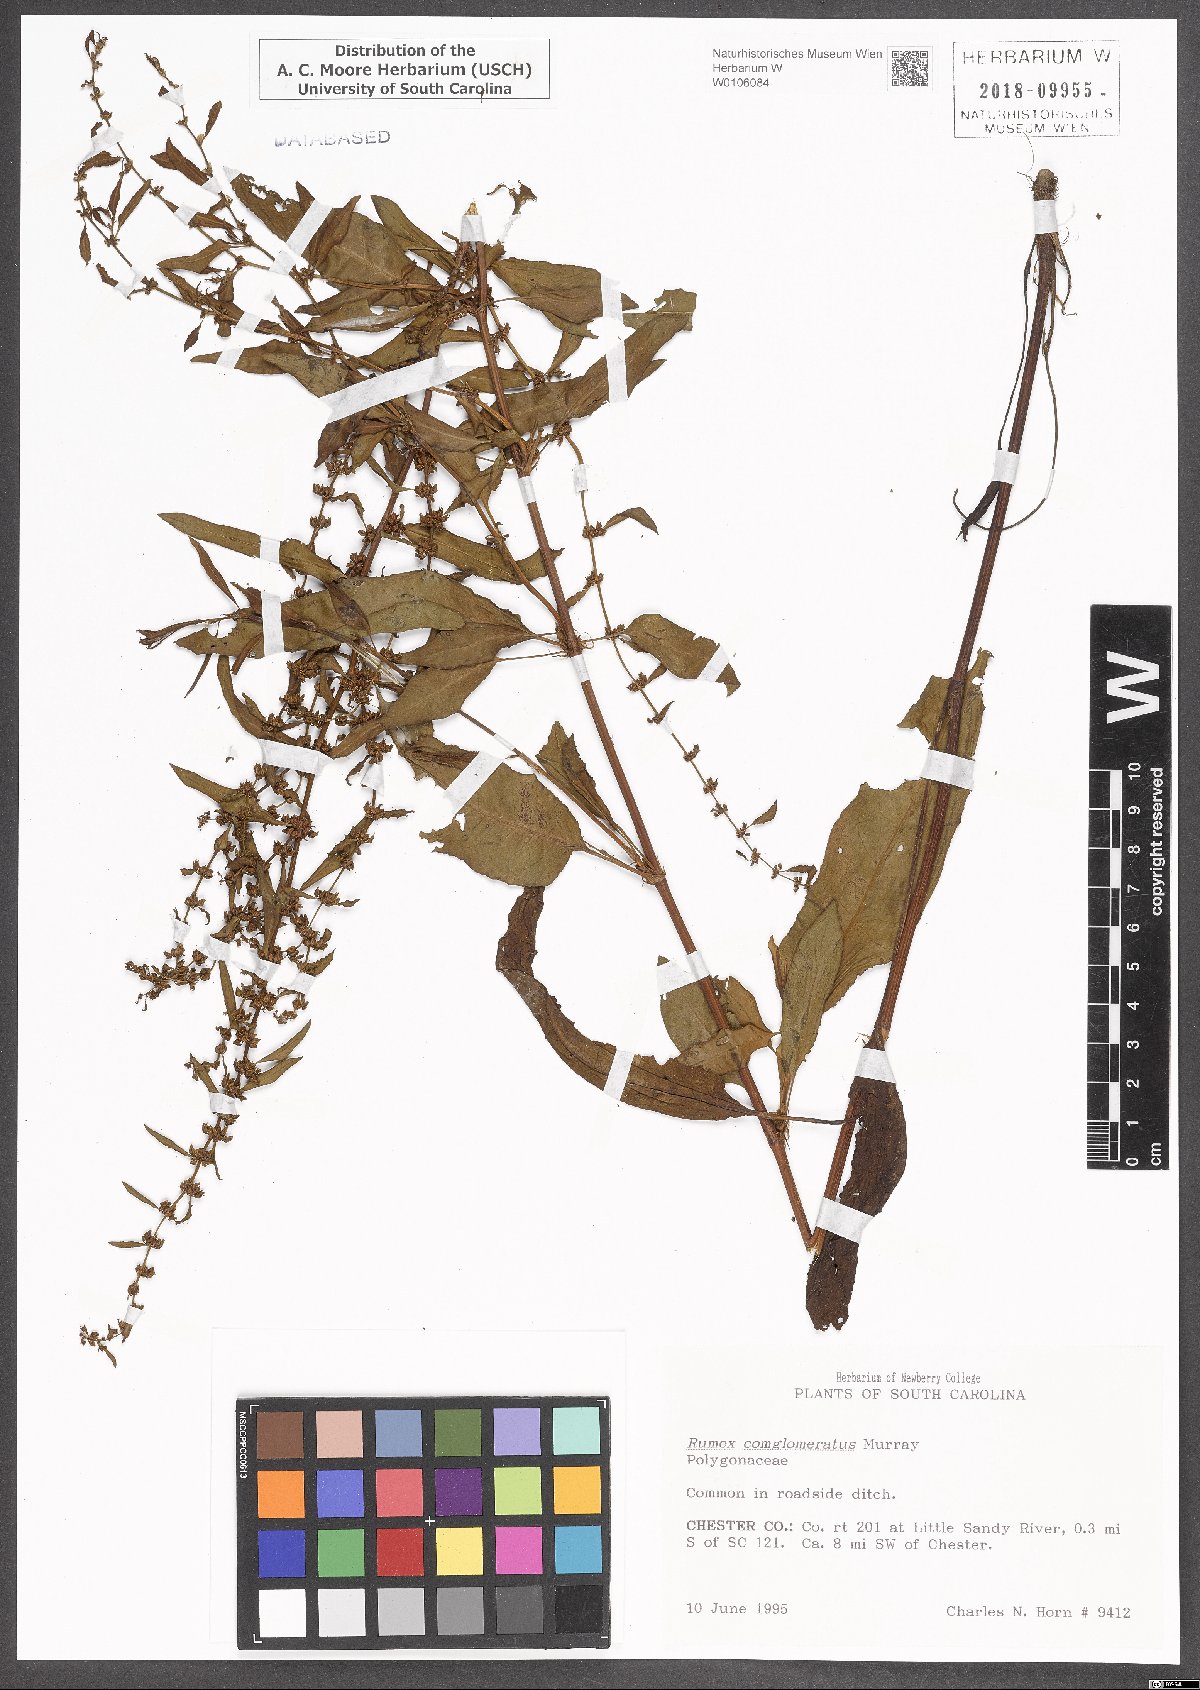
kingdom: Plantae
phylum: Tracheophyta
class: Magnoliopsida
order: Caryophyllales
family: Polygonaceae
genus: Rumex
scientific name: Rumex conglomeratus
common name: Clustered dock
